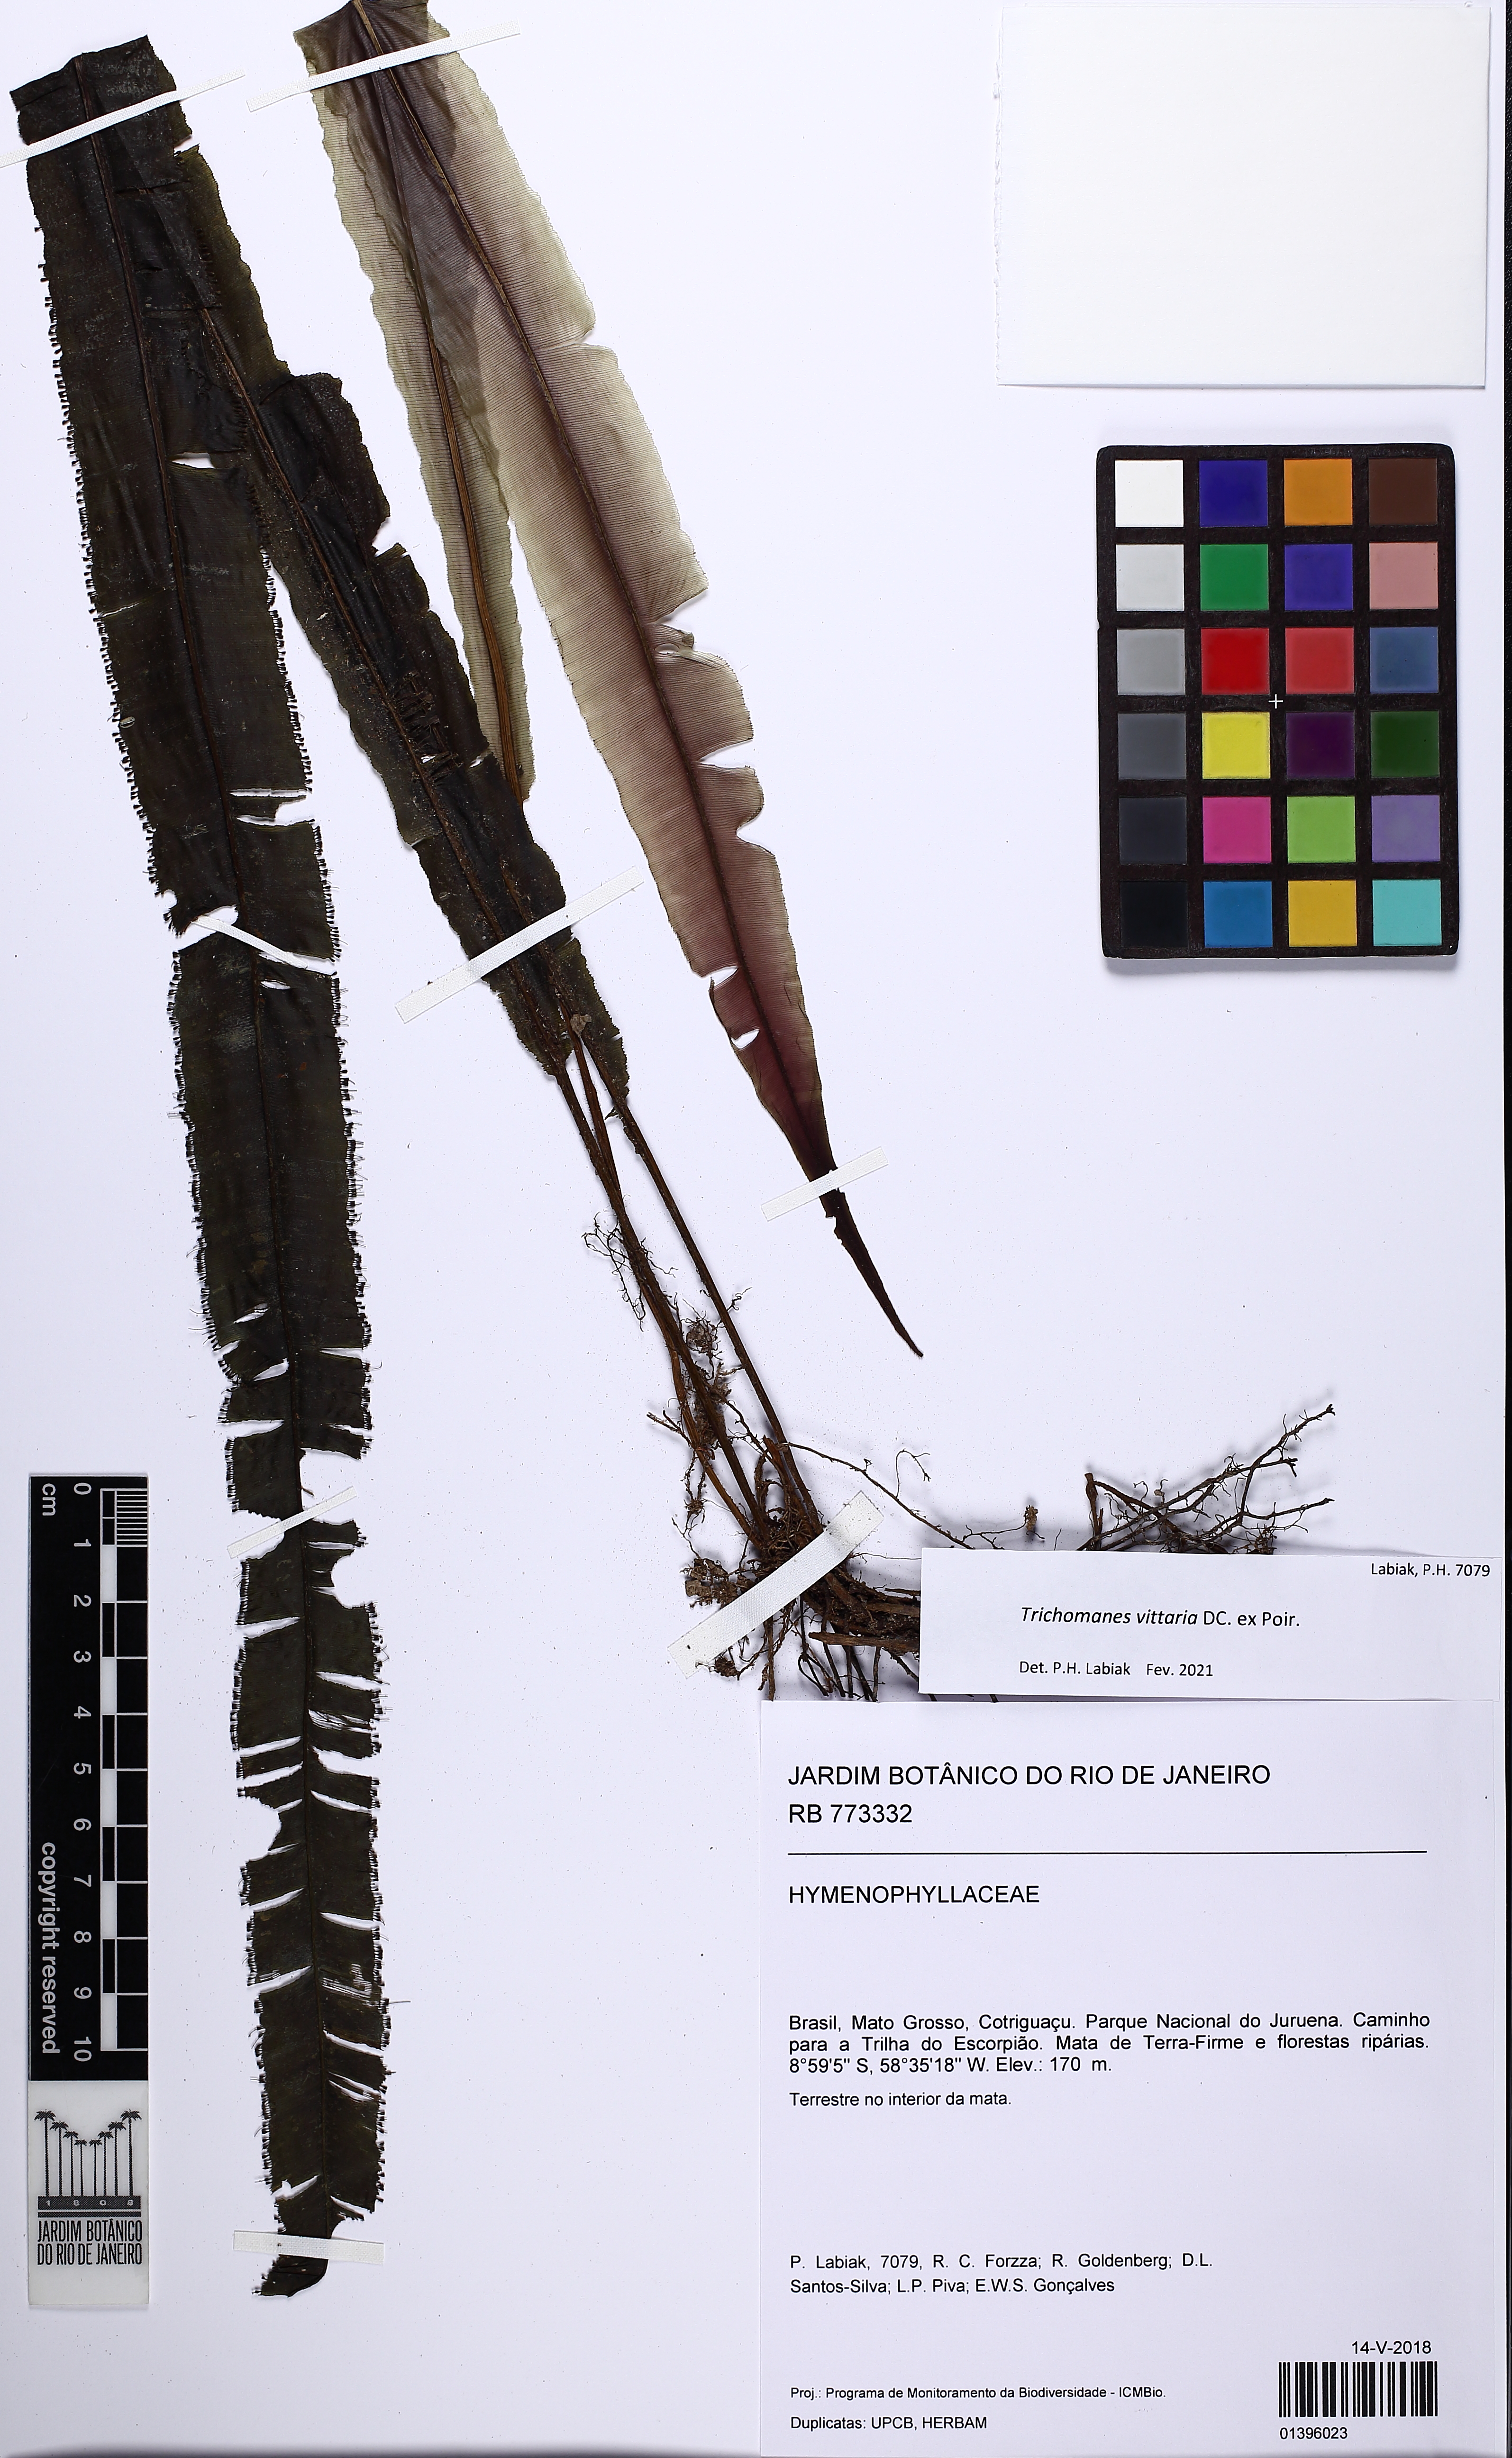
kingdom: Plantae
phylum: Tracheophyta
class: Polypodiopsida
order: Hymenophyllales
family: Hymenophyllaceae
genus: Trichomanes
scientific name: Trichomanes vittaria
